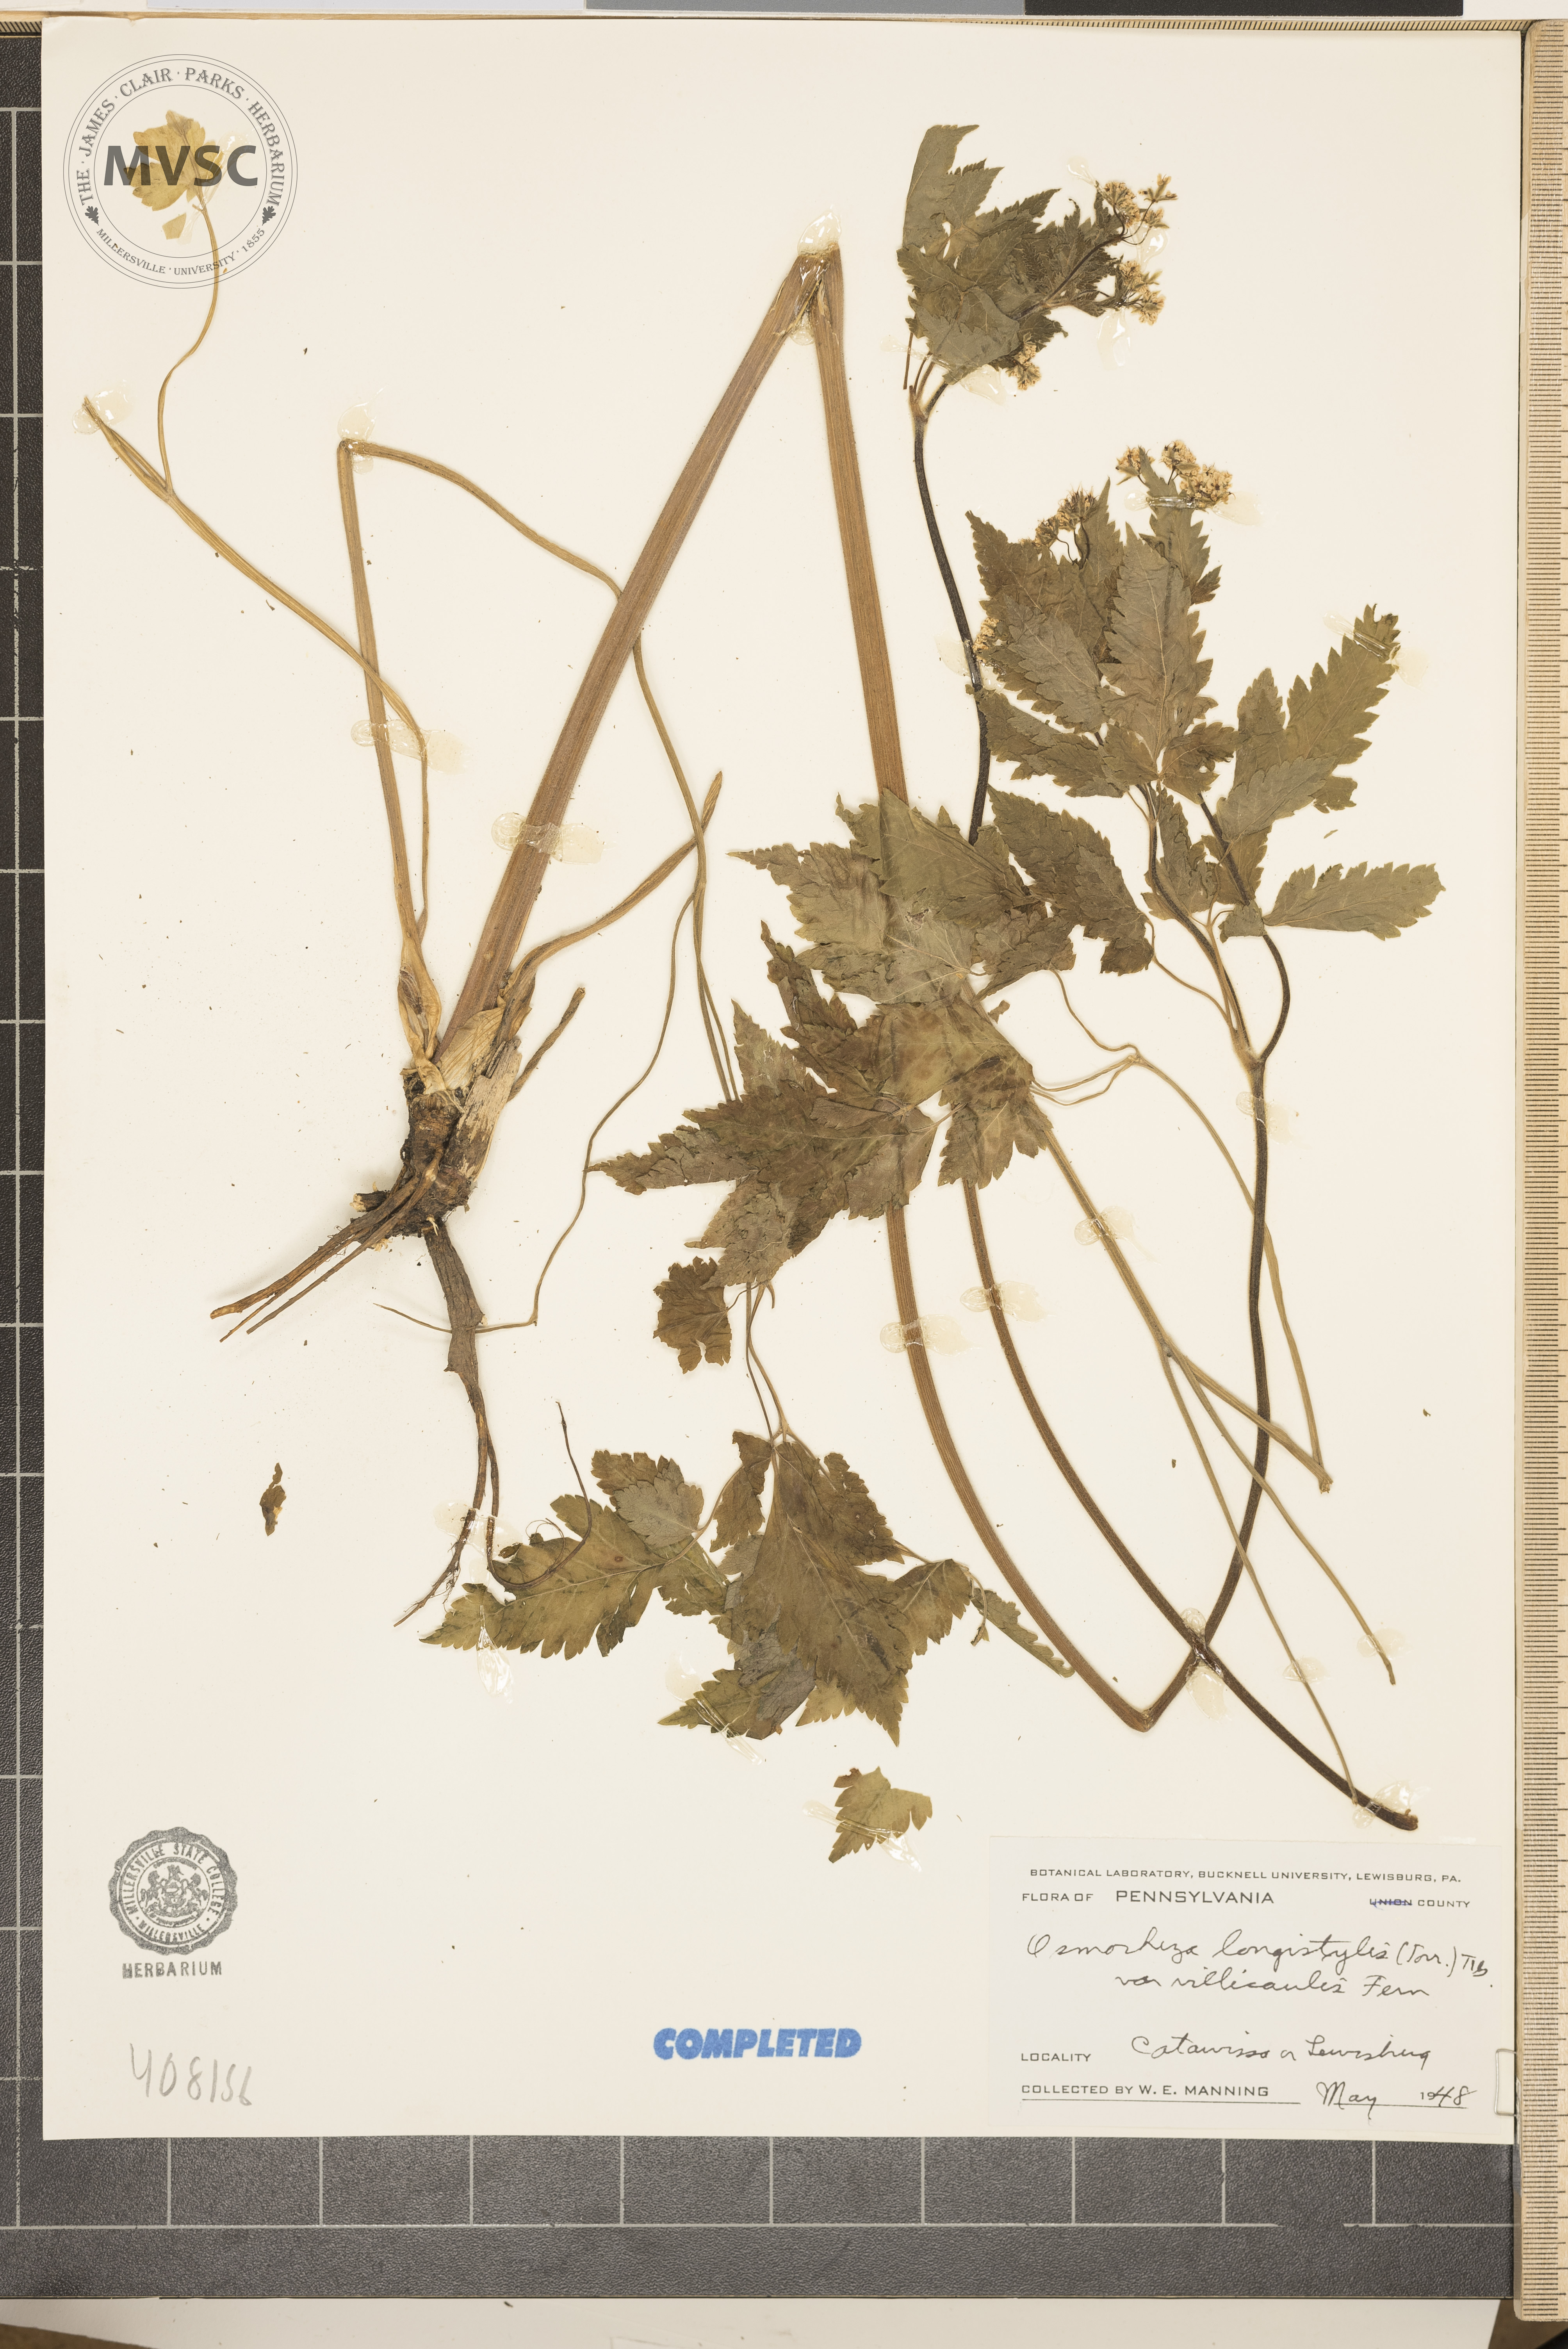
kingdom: Plantae
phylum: Tracheophyta
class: Magnoliopsida
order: Apiales
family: Apiaceae
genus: Osmorhiza
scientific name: Osmorhiza longistylis
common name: Smooth sweet cicely
